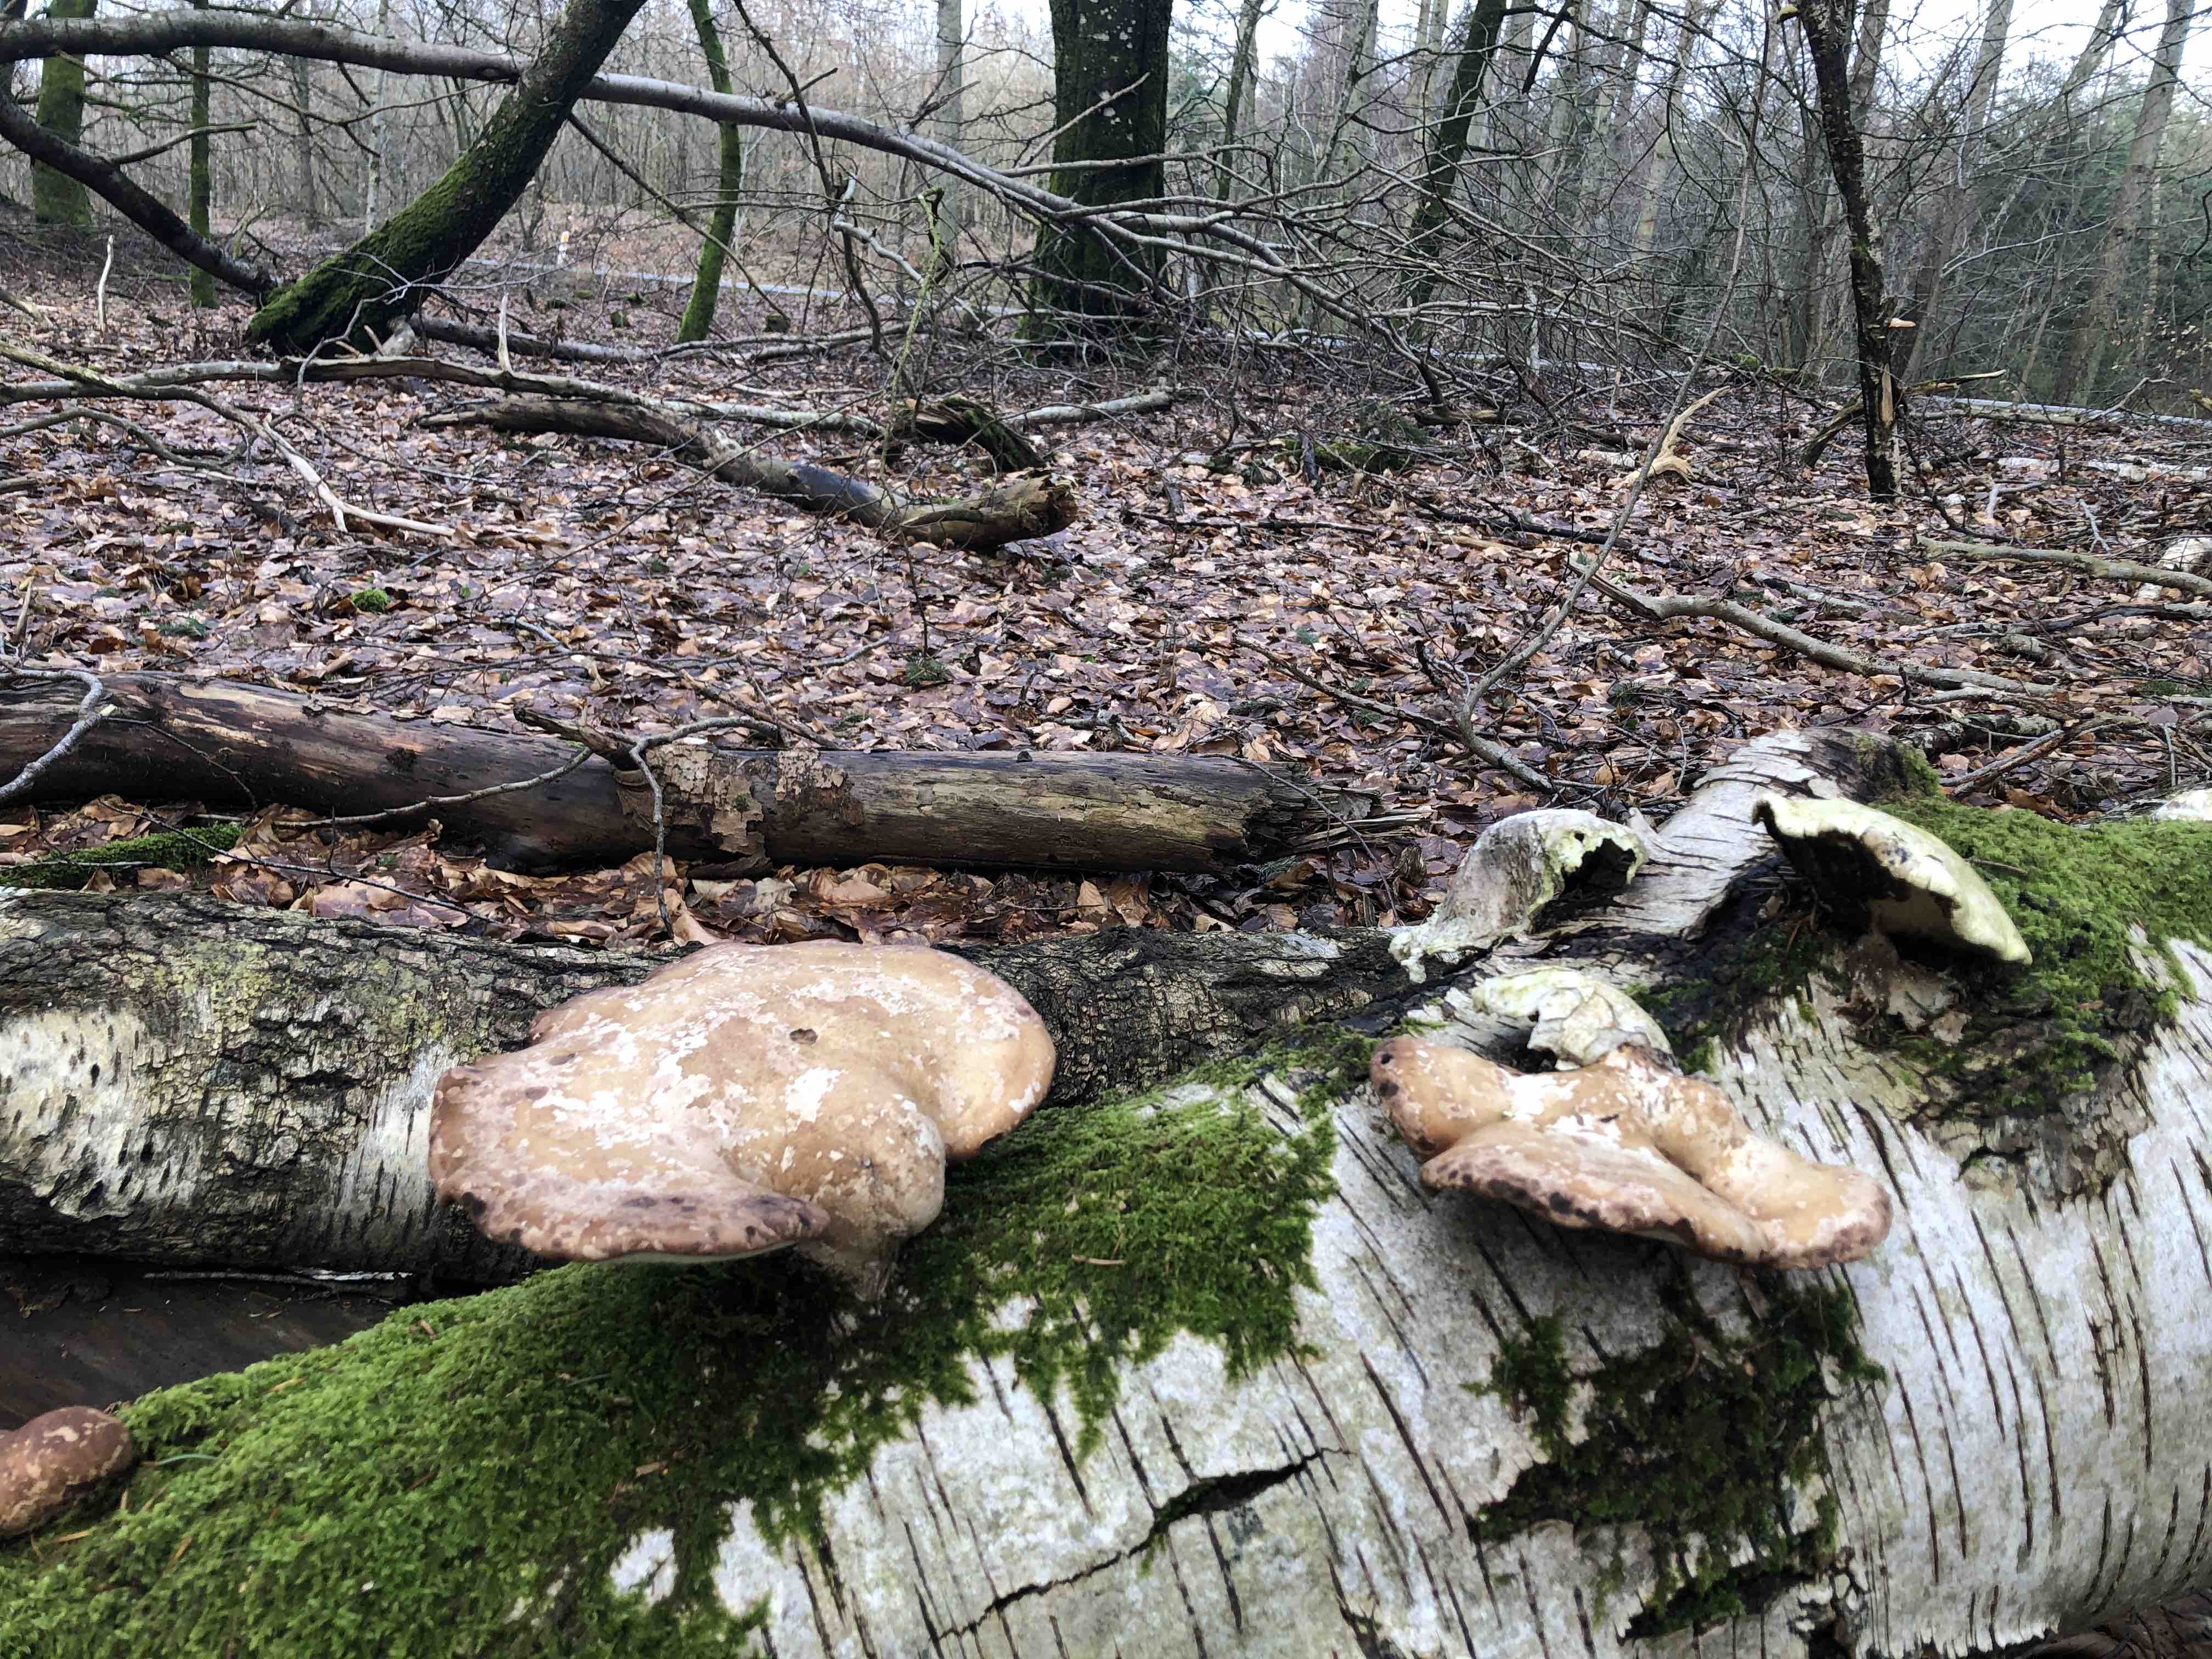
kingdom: Fungi
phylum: Basidiomycota
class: Agaricomycetes
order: Polyporales
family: Fomitopsidaceae
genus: Fomitopsis
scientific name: Fomitopsis betulina
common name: birkeporesvamp
